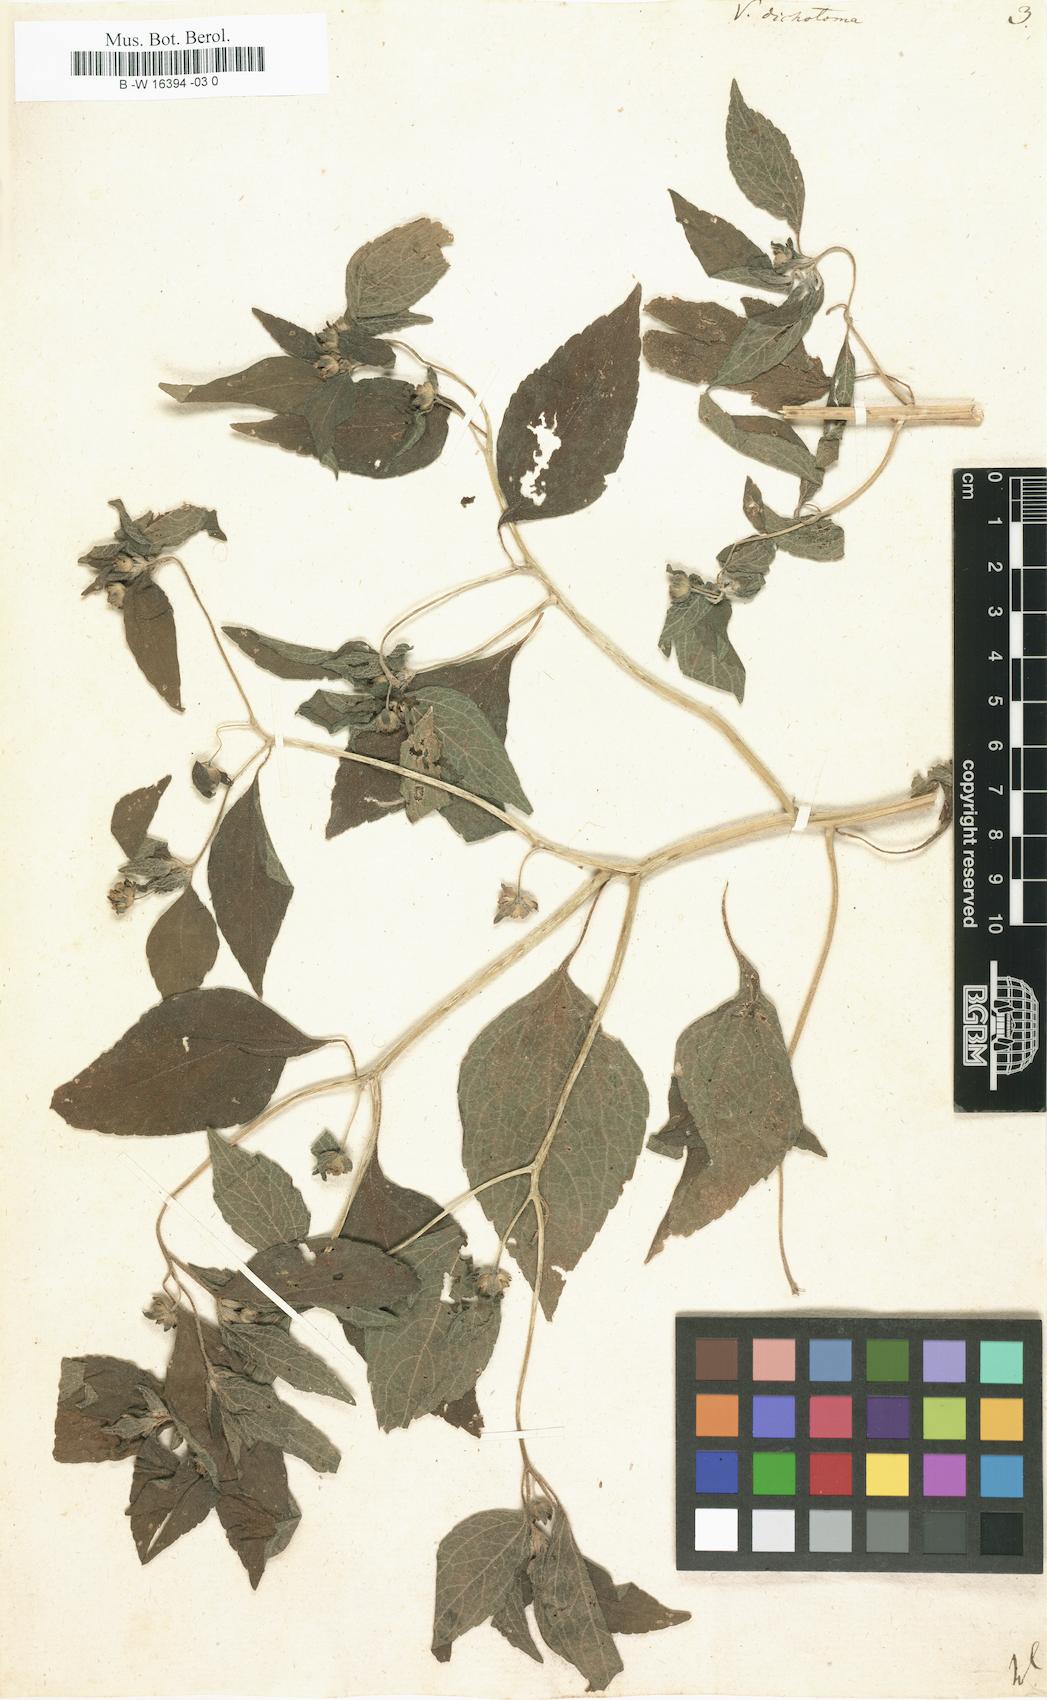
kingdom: Plantae
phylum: Tracheophyta
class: Magnoliopsida
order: Asterales
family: Asteraceae
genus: Blainvillea
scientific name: Blainvillea dichotoma
